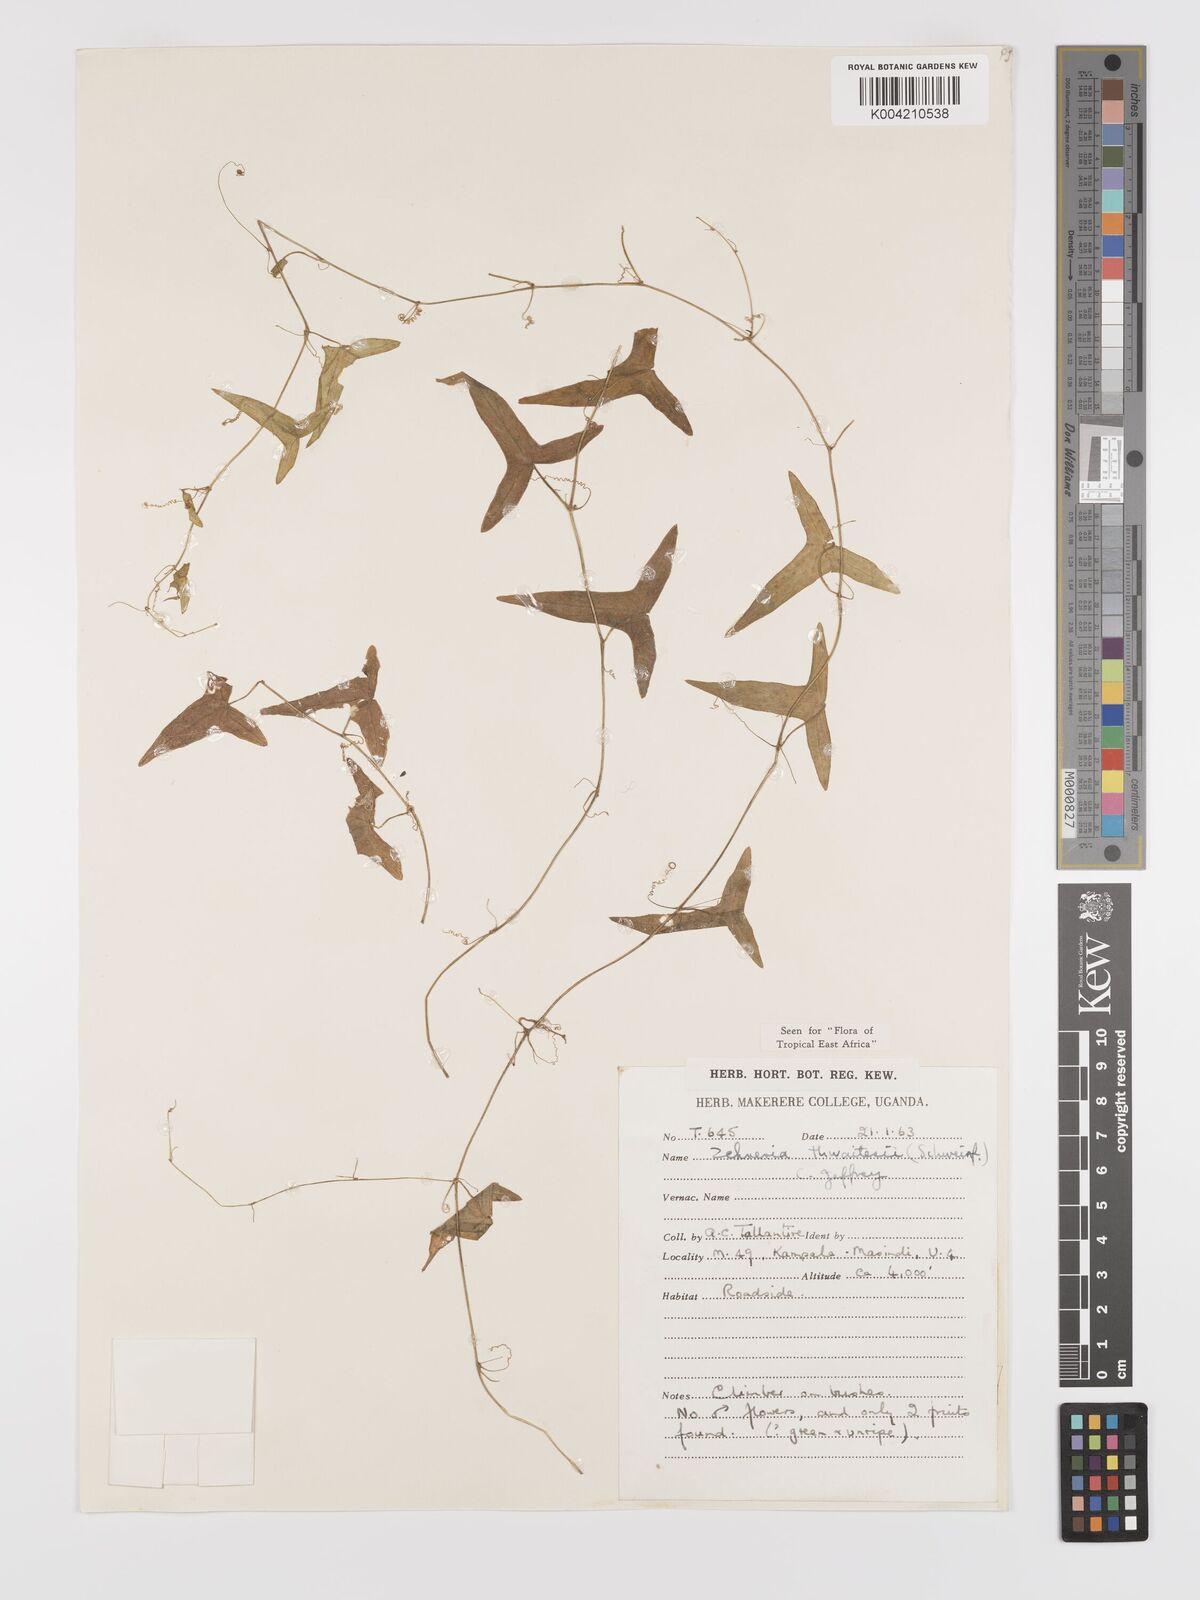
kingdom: Plantae
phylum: Tracheophyta
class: Magnoliopsida
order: Cucurbitales
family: Cucurbitaceae
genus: Zehneria
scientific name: Zehneria thwaitesii
